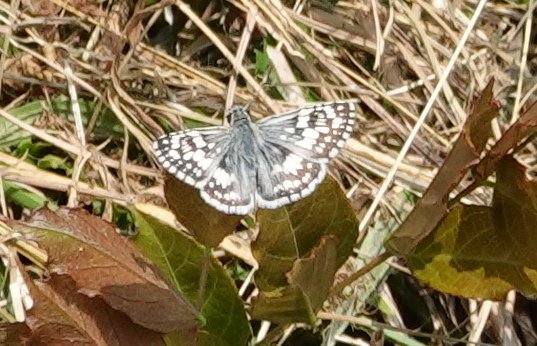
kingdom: Animalia
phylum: Arthropoda
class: Insecta
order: Lepidoptera
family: Hesperiidae
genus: Pyrgus
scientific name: Pyrgus communis
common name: White Checkered-Skipper
